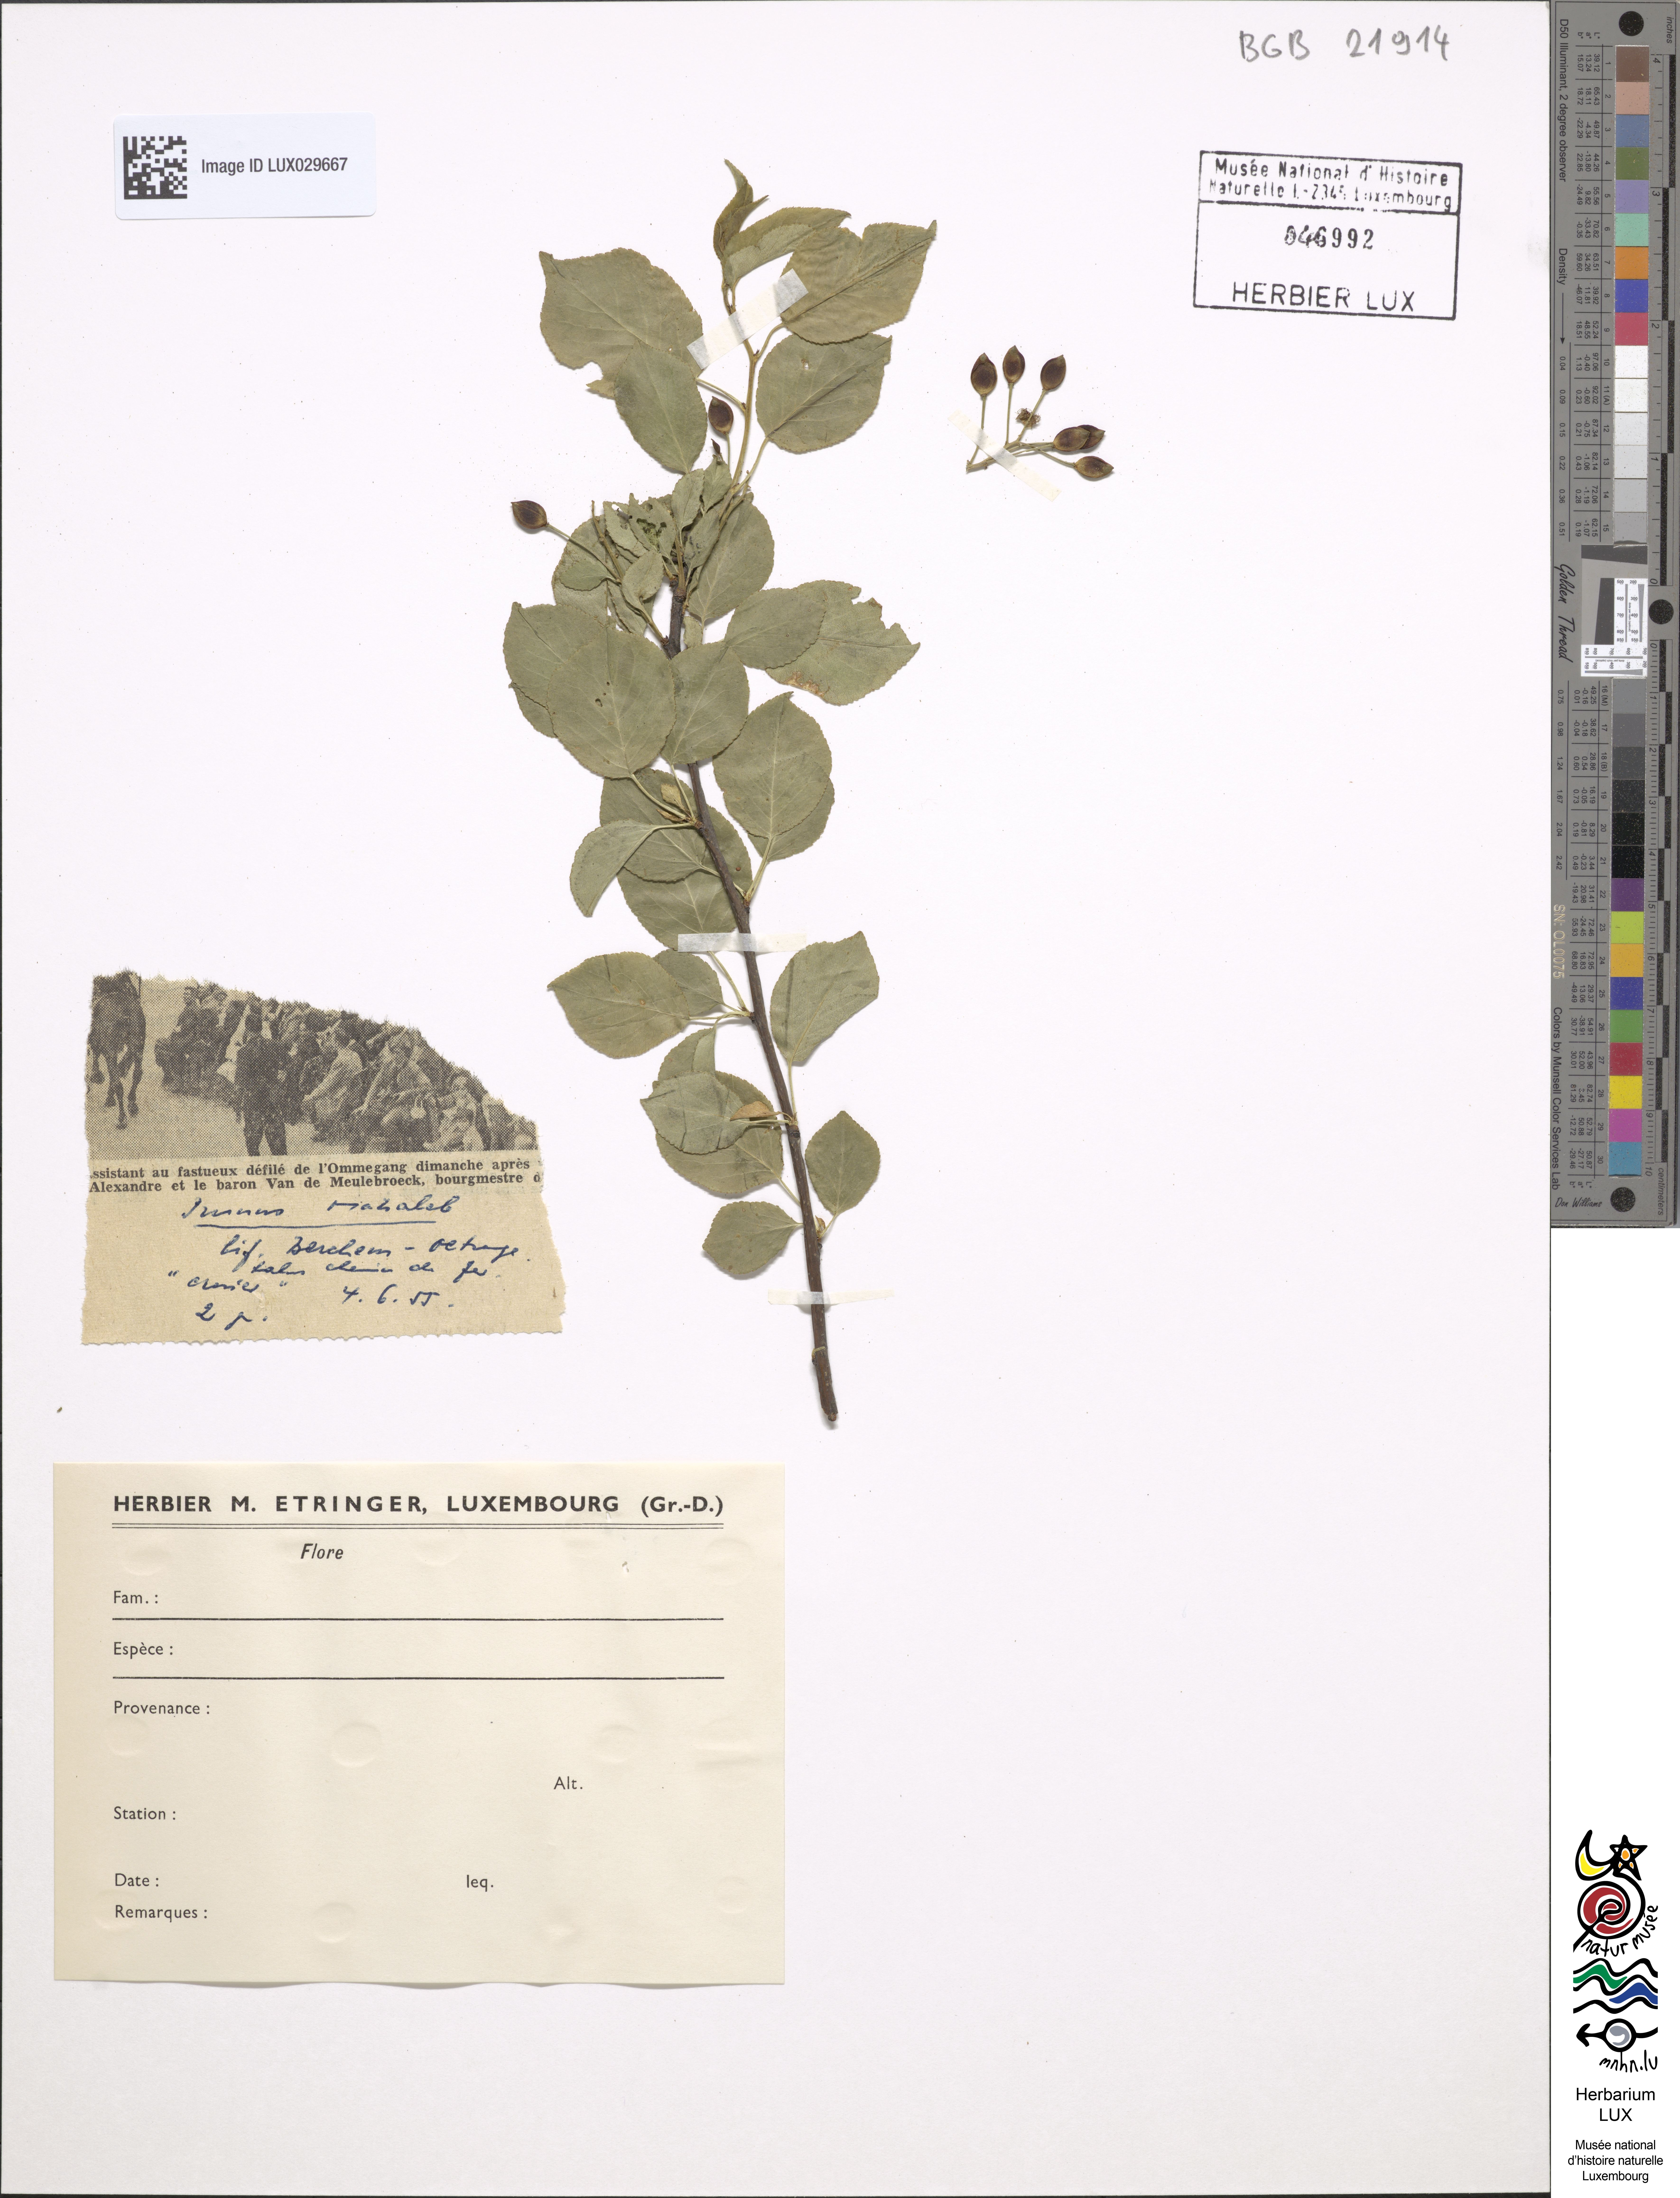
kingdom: Plantae
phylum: Tracheophyta
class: Magnoliopsida
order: Rosales
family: Rosaceae
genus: Prunus
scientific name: Prunus mahaleb
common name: Mahaleb cherry
